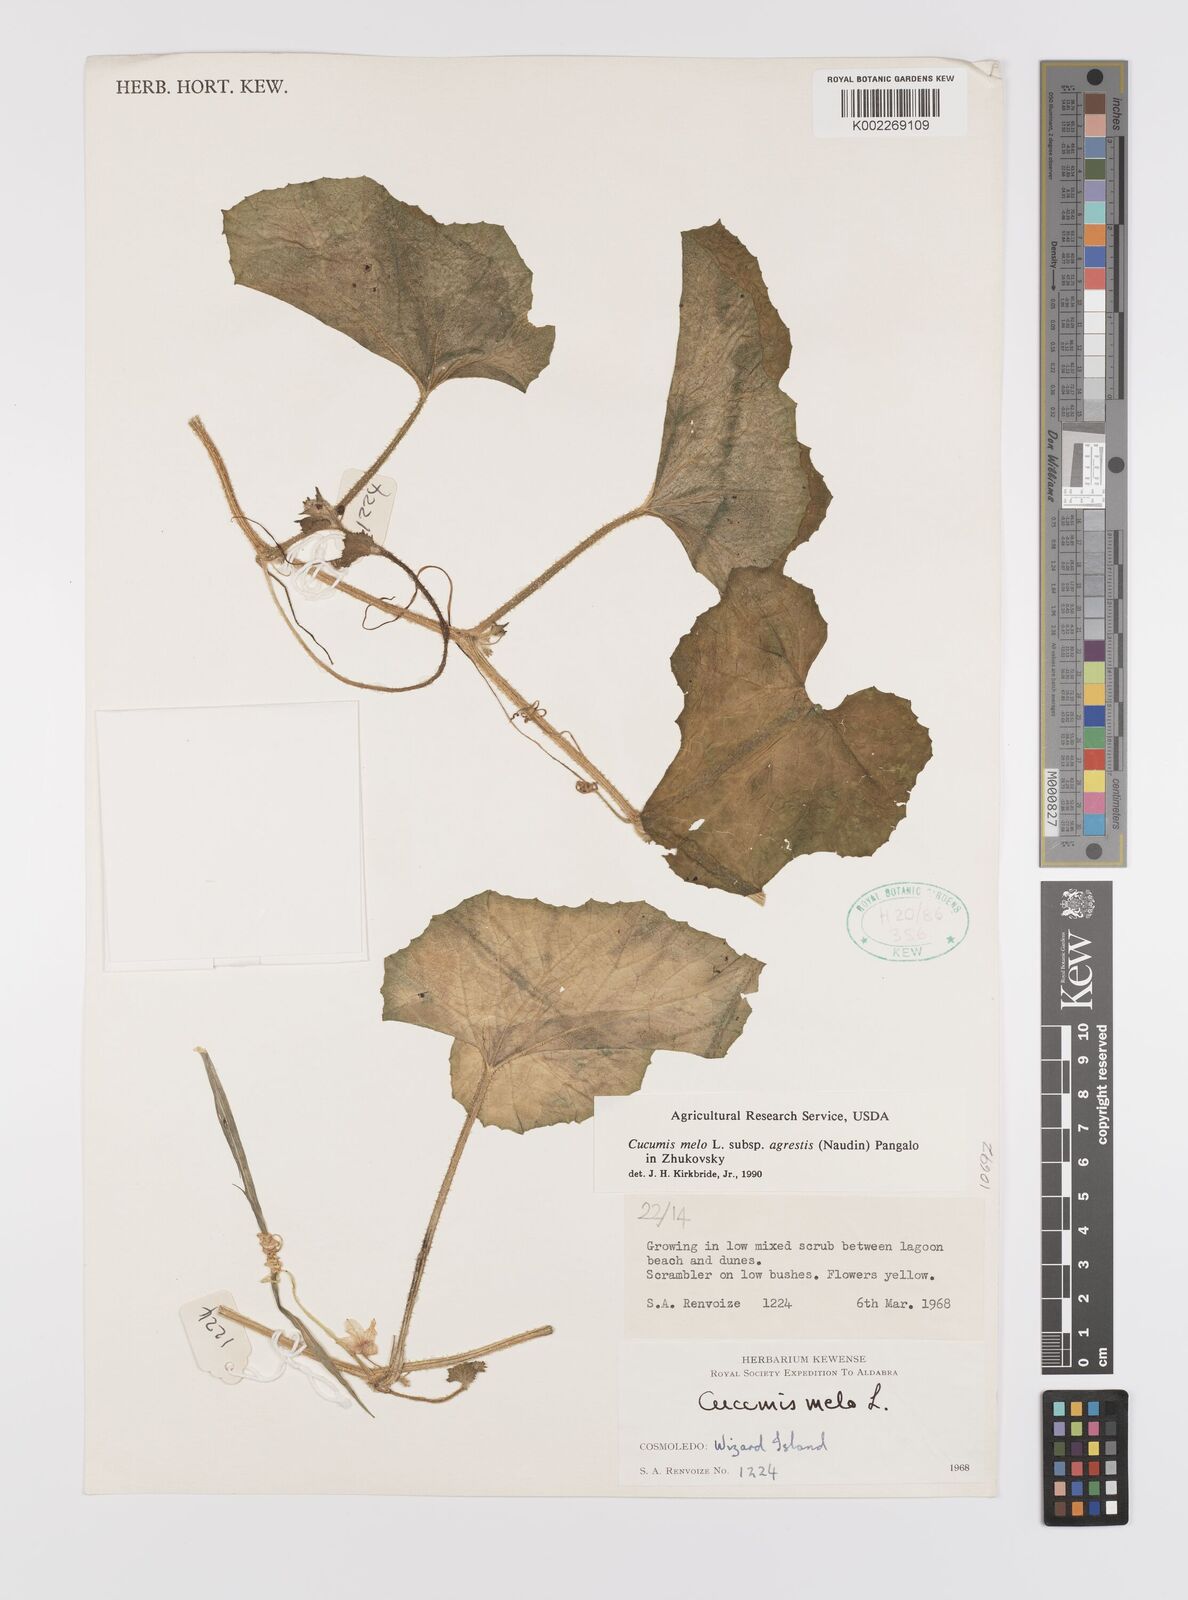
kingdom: Plantae
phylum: Tracheophyta
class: Magnoliopsida
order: Cucurbitales
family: Cucurbitaceae
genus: Cucumis
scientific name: Cucumis melo
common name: Melon
